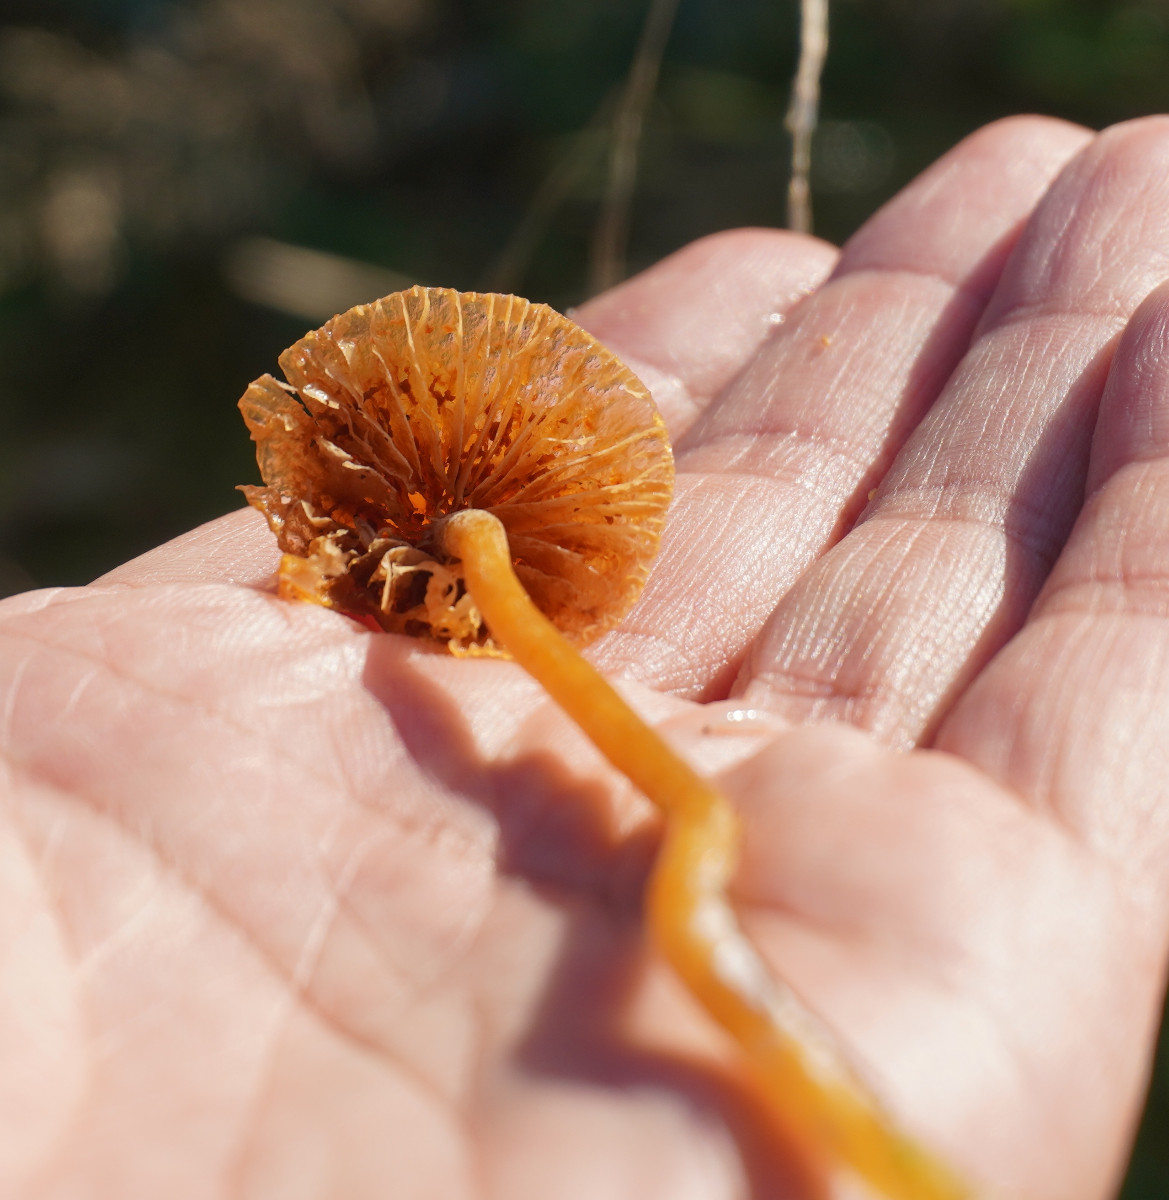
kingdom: Fungi
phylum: Basidiomycota
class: Agaricomycetes
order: Agaricales
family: Hymenogastraceae
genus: Galerina
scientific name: Galerina
